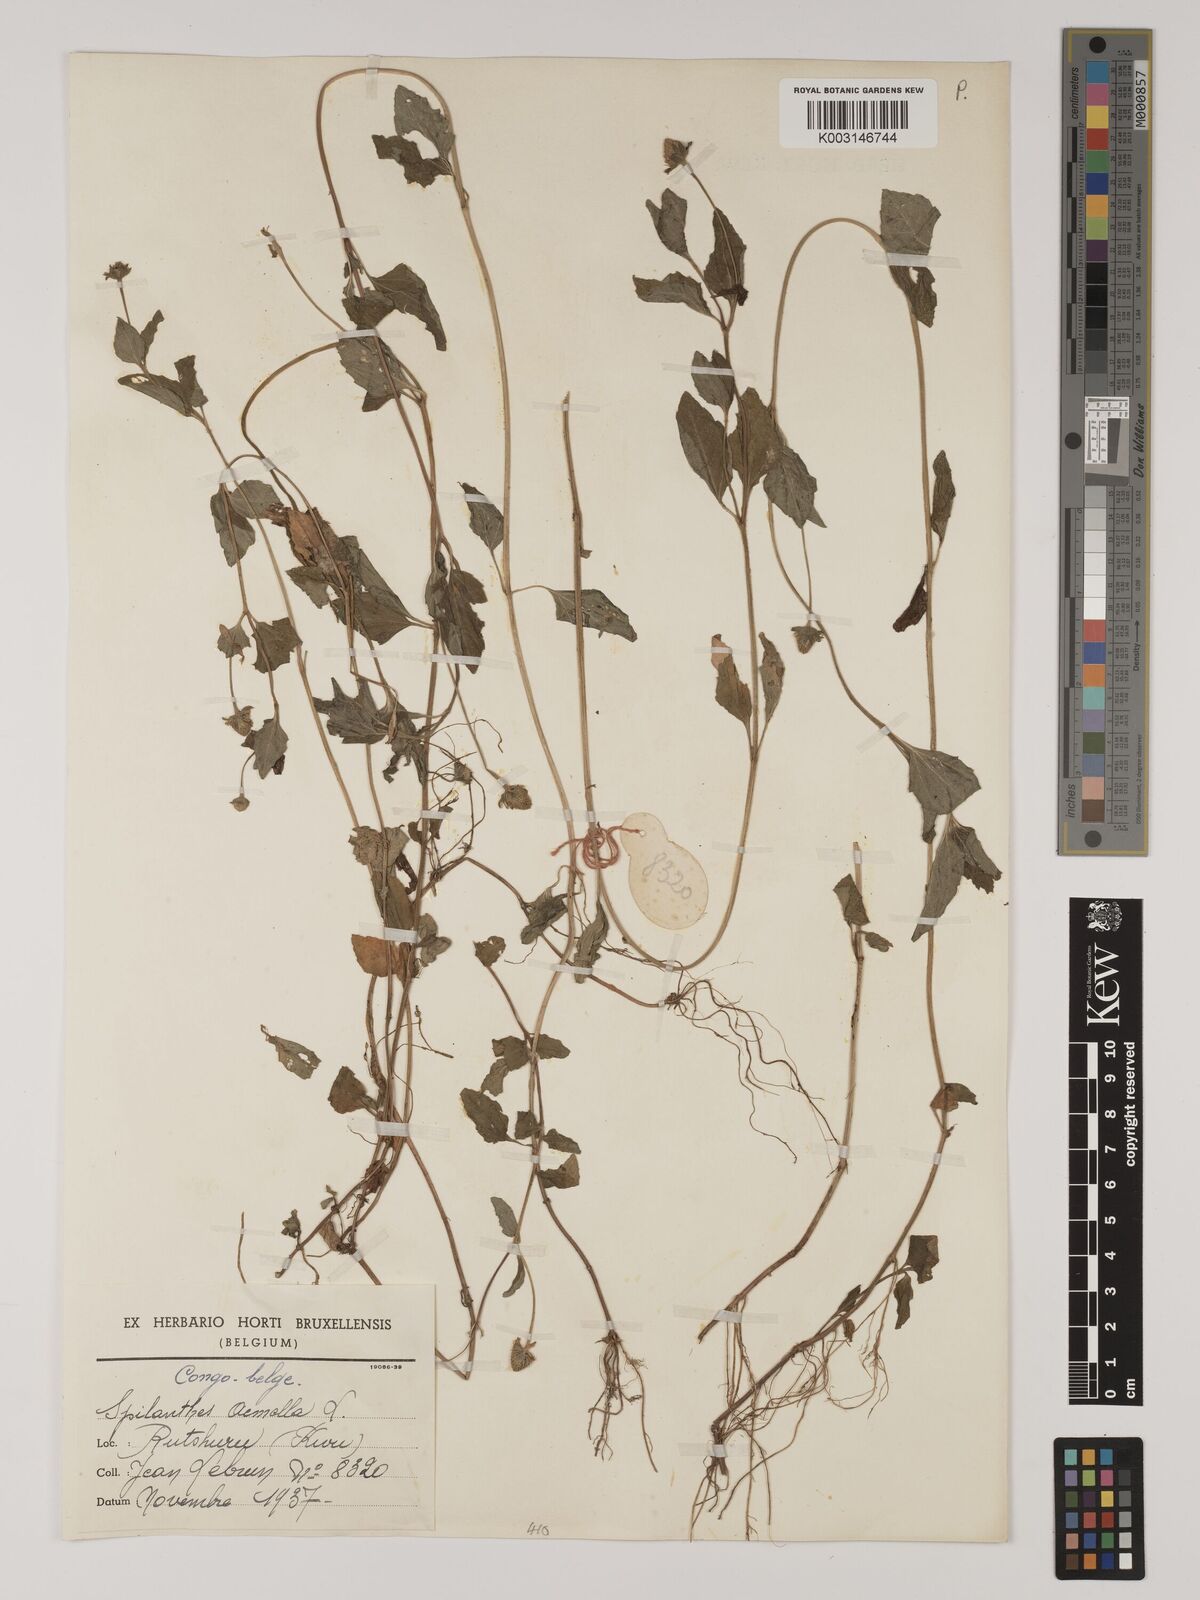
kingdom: Plantae
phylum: Tracheophyta
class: Magnoliopsida
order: Asterales
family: Asteraceae
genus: Blainvillea
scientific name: Blainvillea acmella
